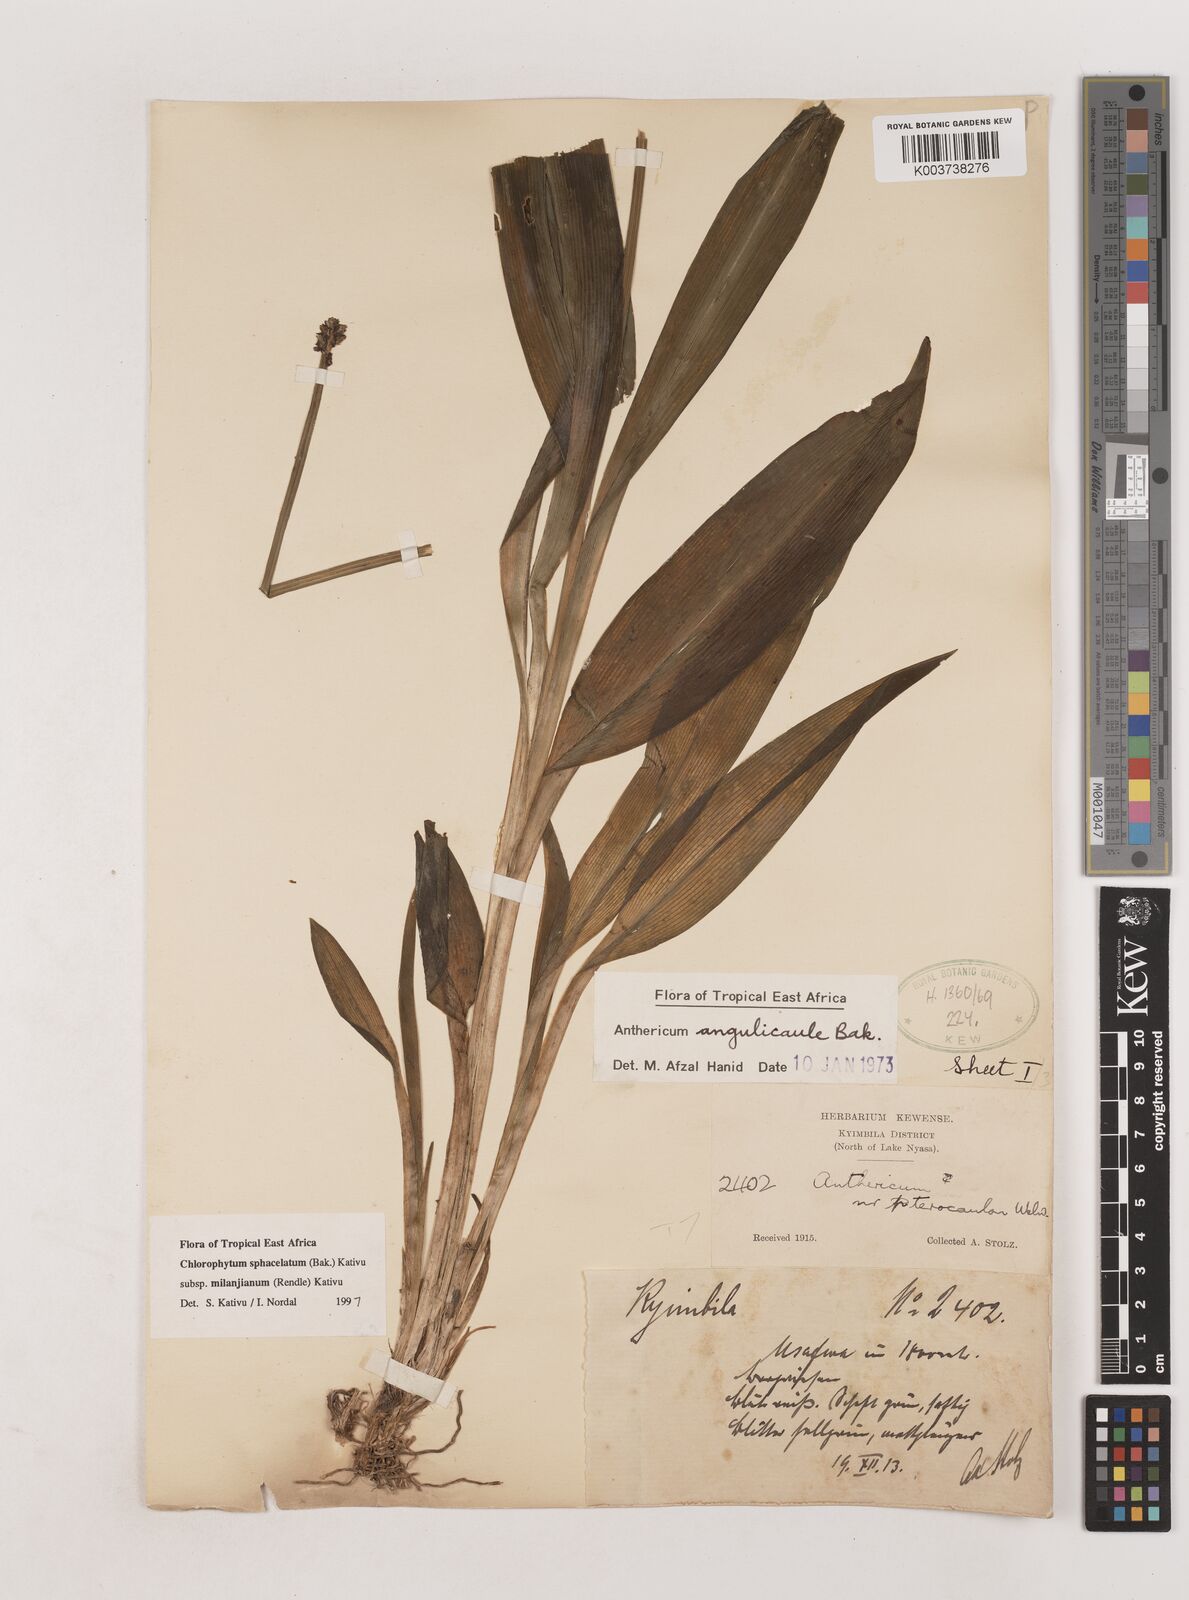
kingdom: Plantae
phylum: Tracheophyta
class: Liliopsida
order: Asparagales
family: Asparagaceae
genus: Chlorophytum
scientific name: Chlorophytum sphacelatum
